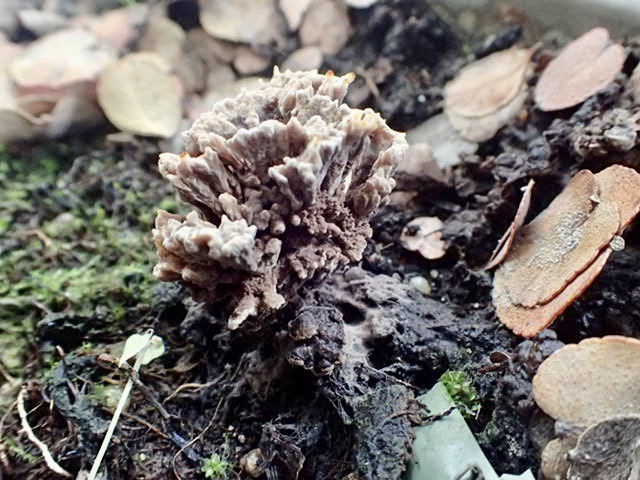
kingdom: Fungi
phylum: Basidiomycota
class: Agaricomycetes
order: Thelephorales
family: Thelephoraceae
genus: Thelephora
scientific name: Thelephora
